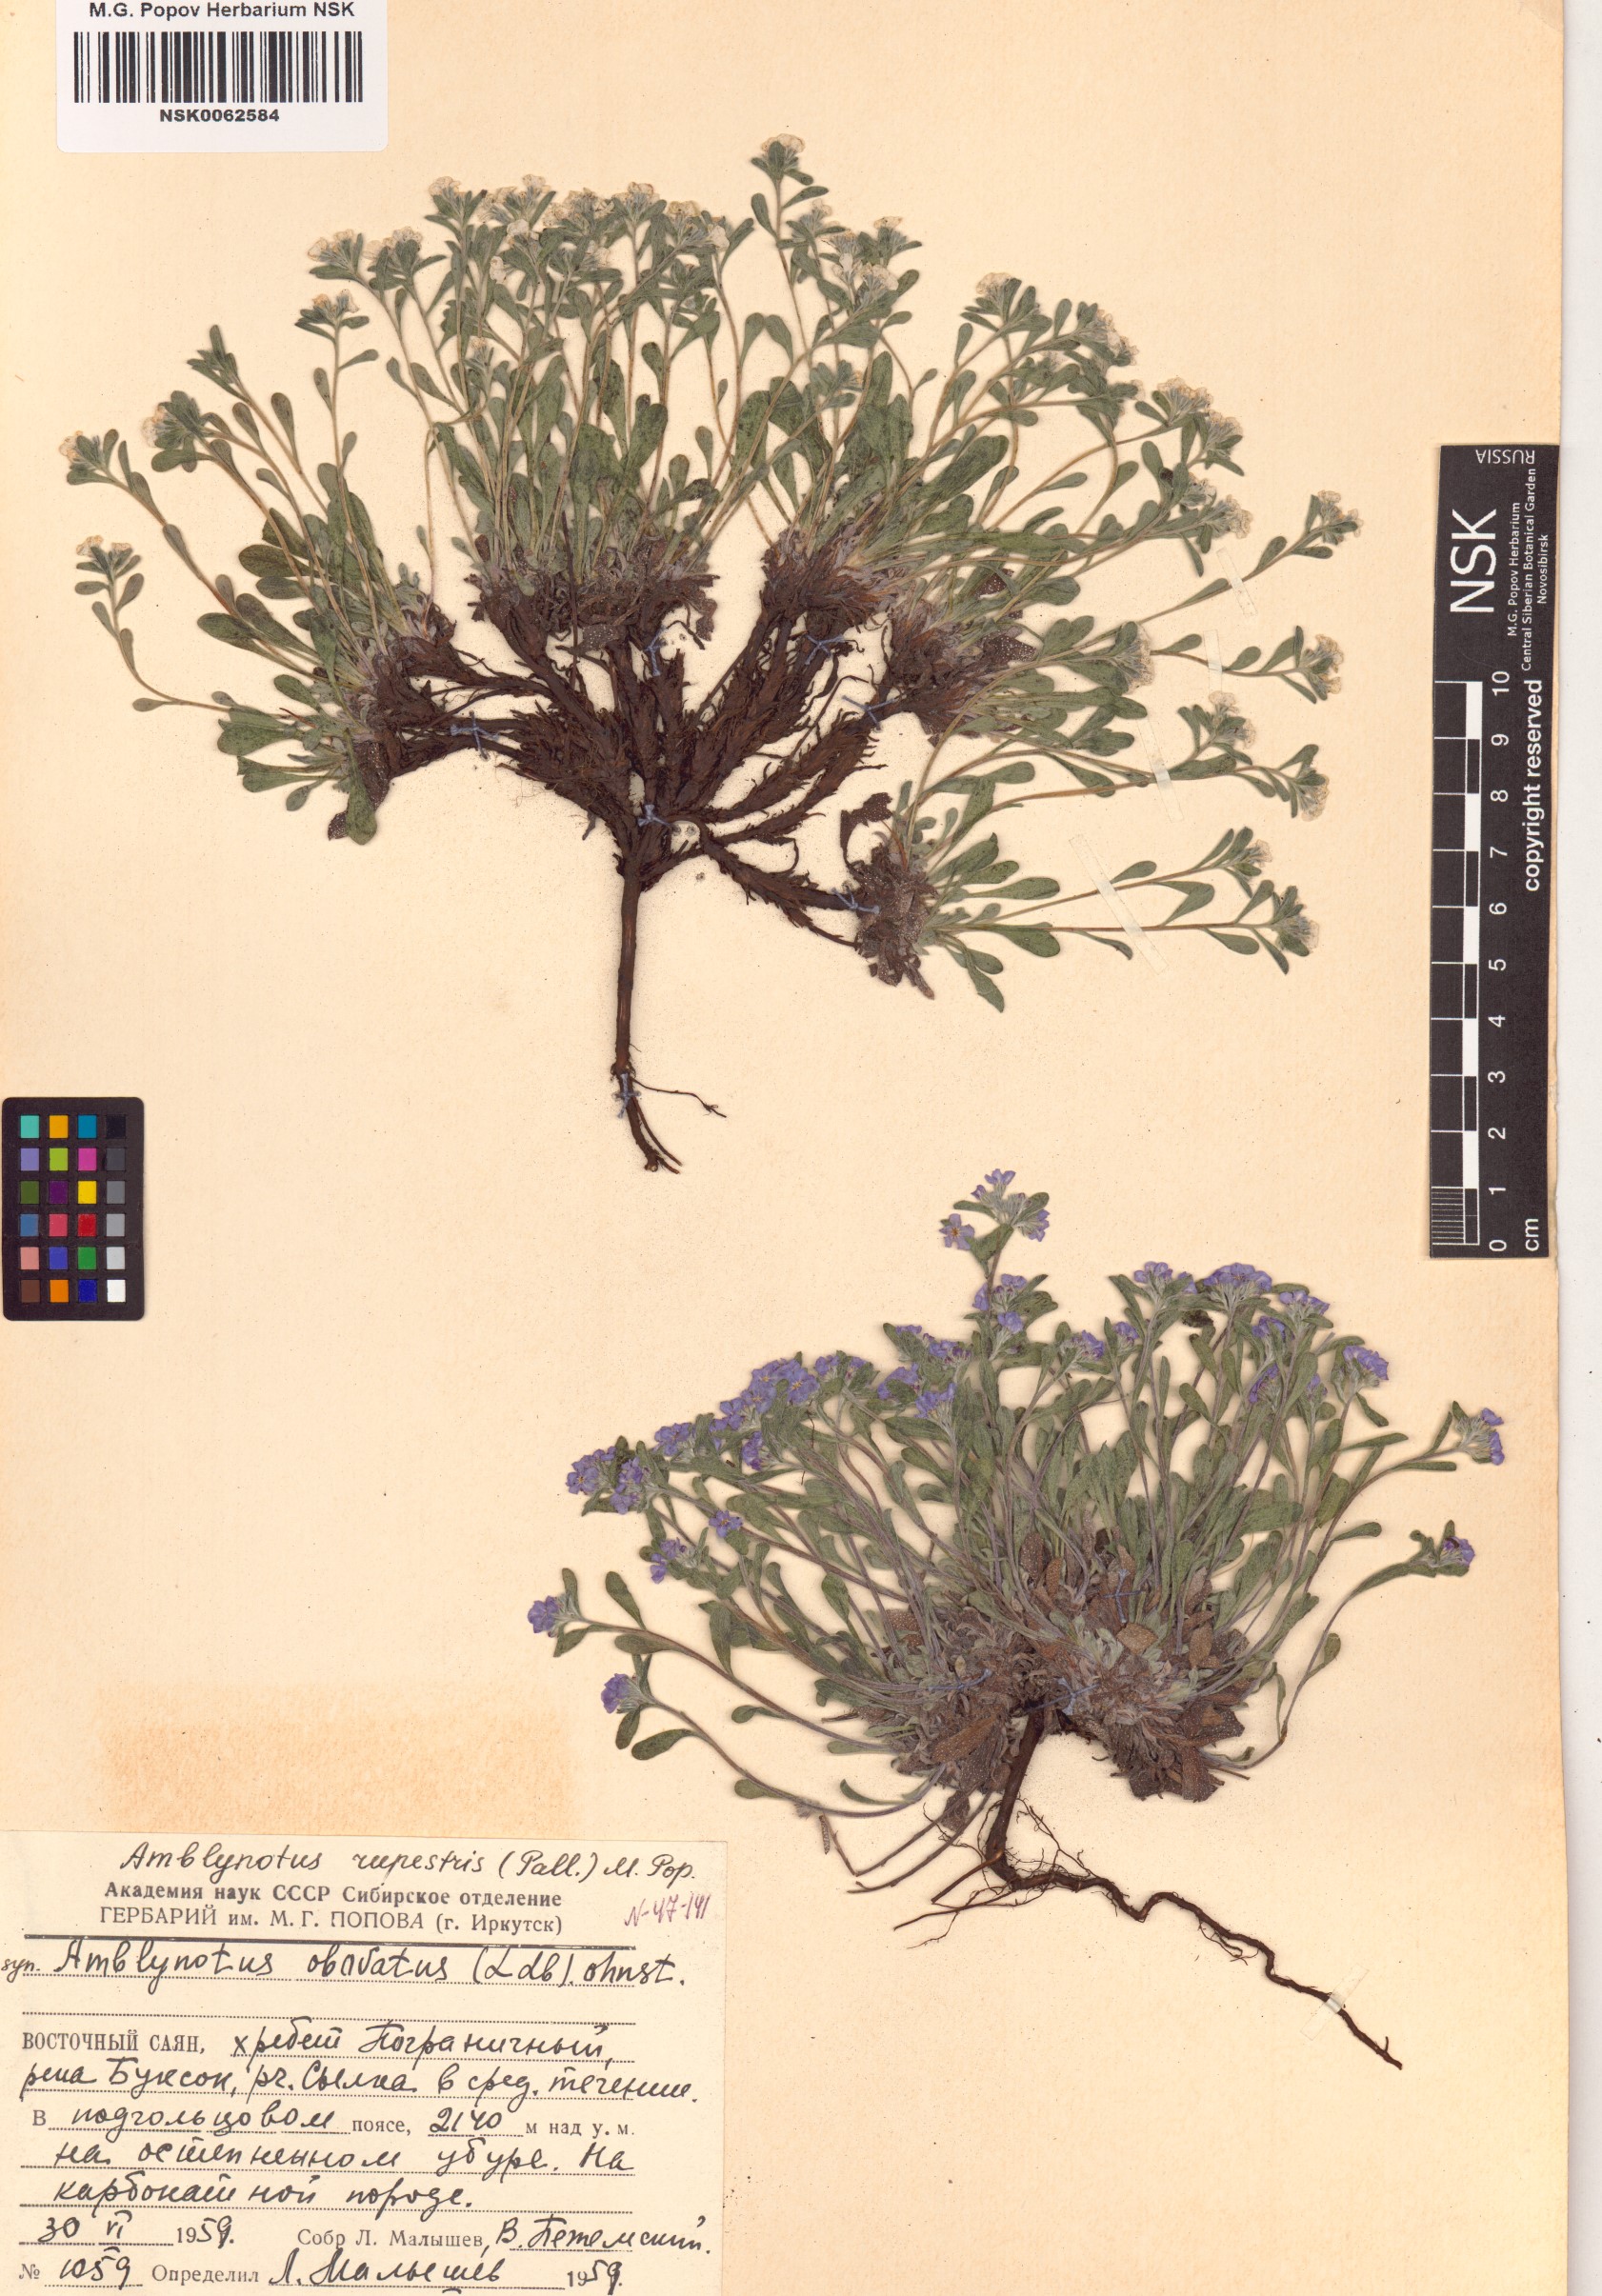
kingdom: Plantae
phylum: Tracheophyta
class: Magnoliopsida
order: Boraginales
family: Boraginaceae
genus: Eritrichium
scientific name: Eritrichium rupestre
